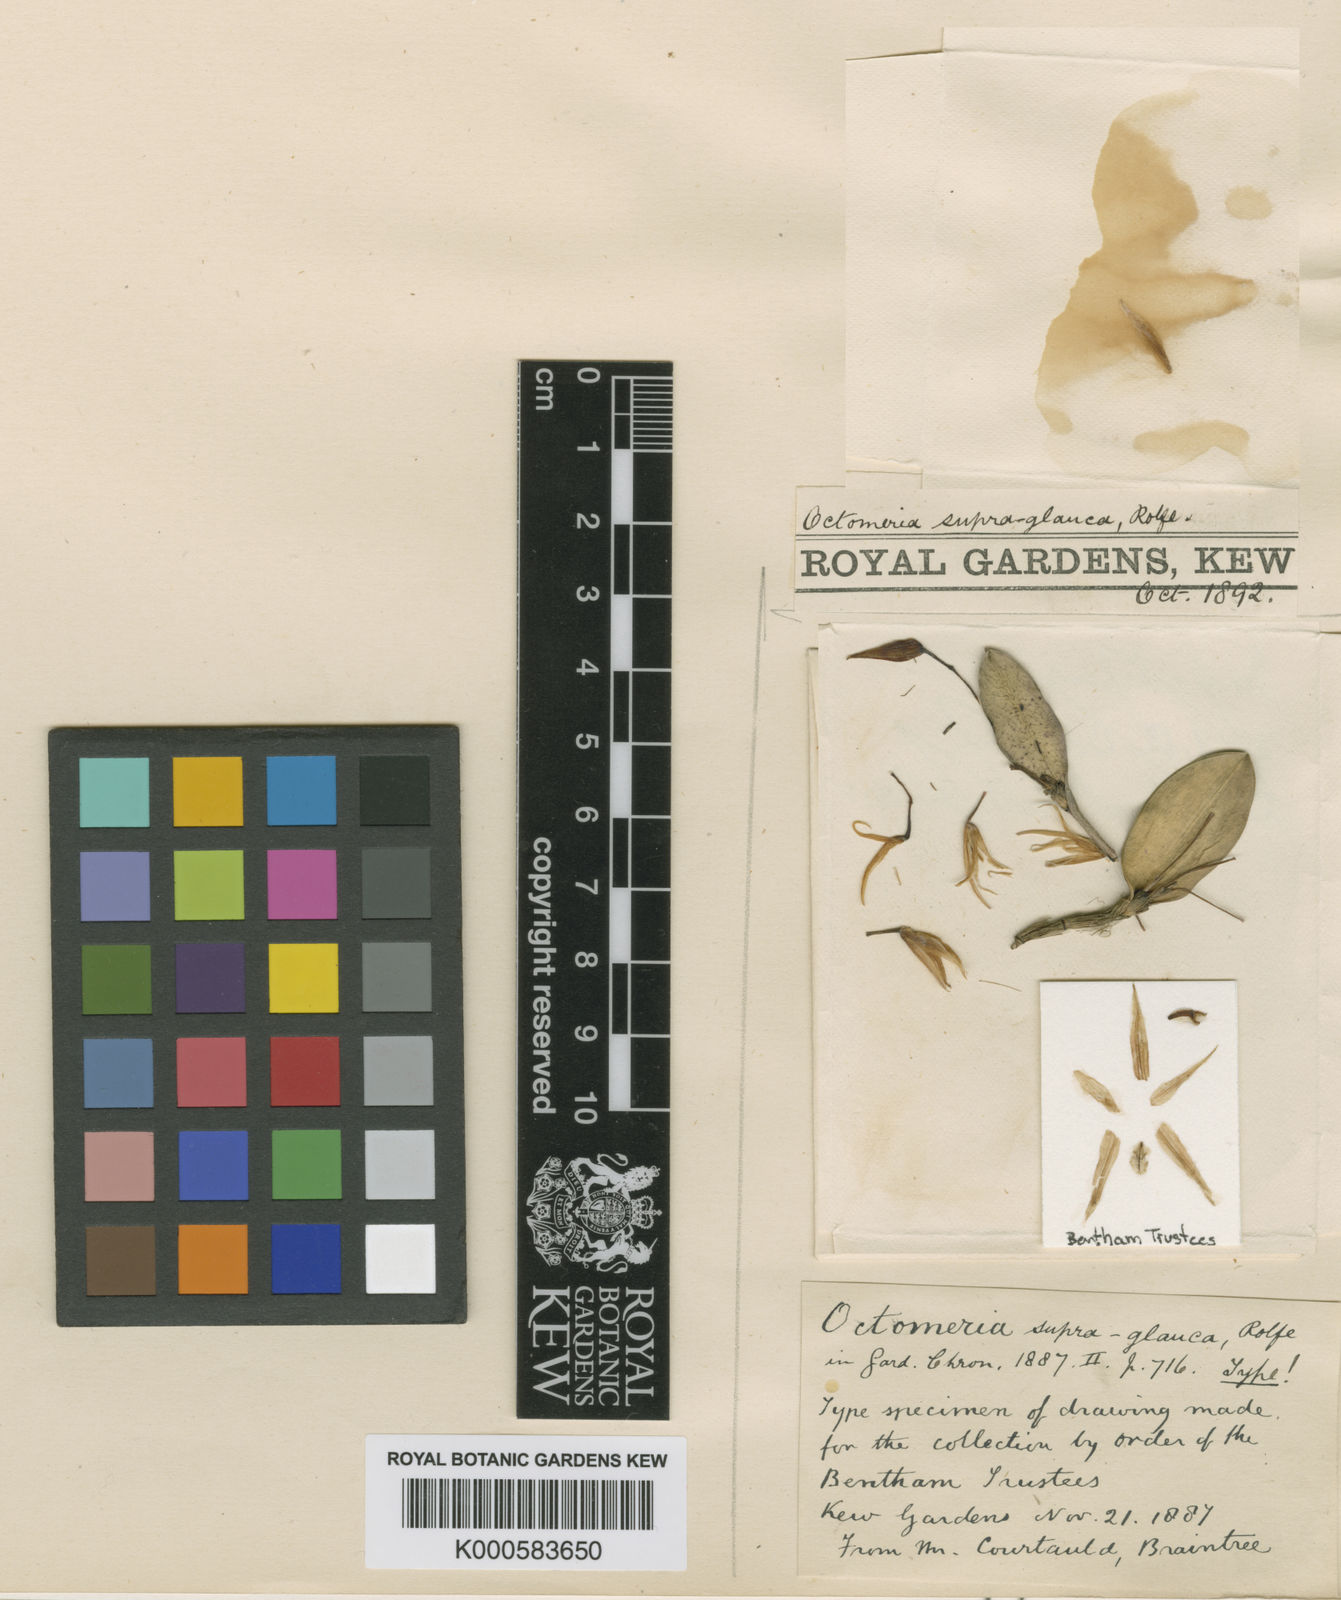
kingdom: Plantae
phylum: Tracheophyta
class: Liliopsida
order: Asparagales
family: Orchidaceae
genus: Octomeria
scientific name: Octomeria cochlearis
